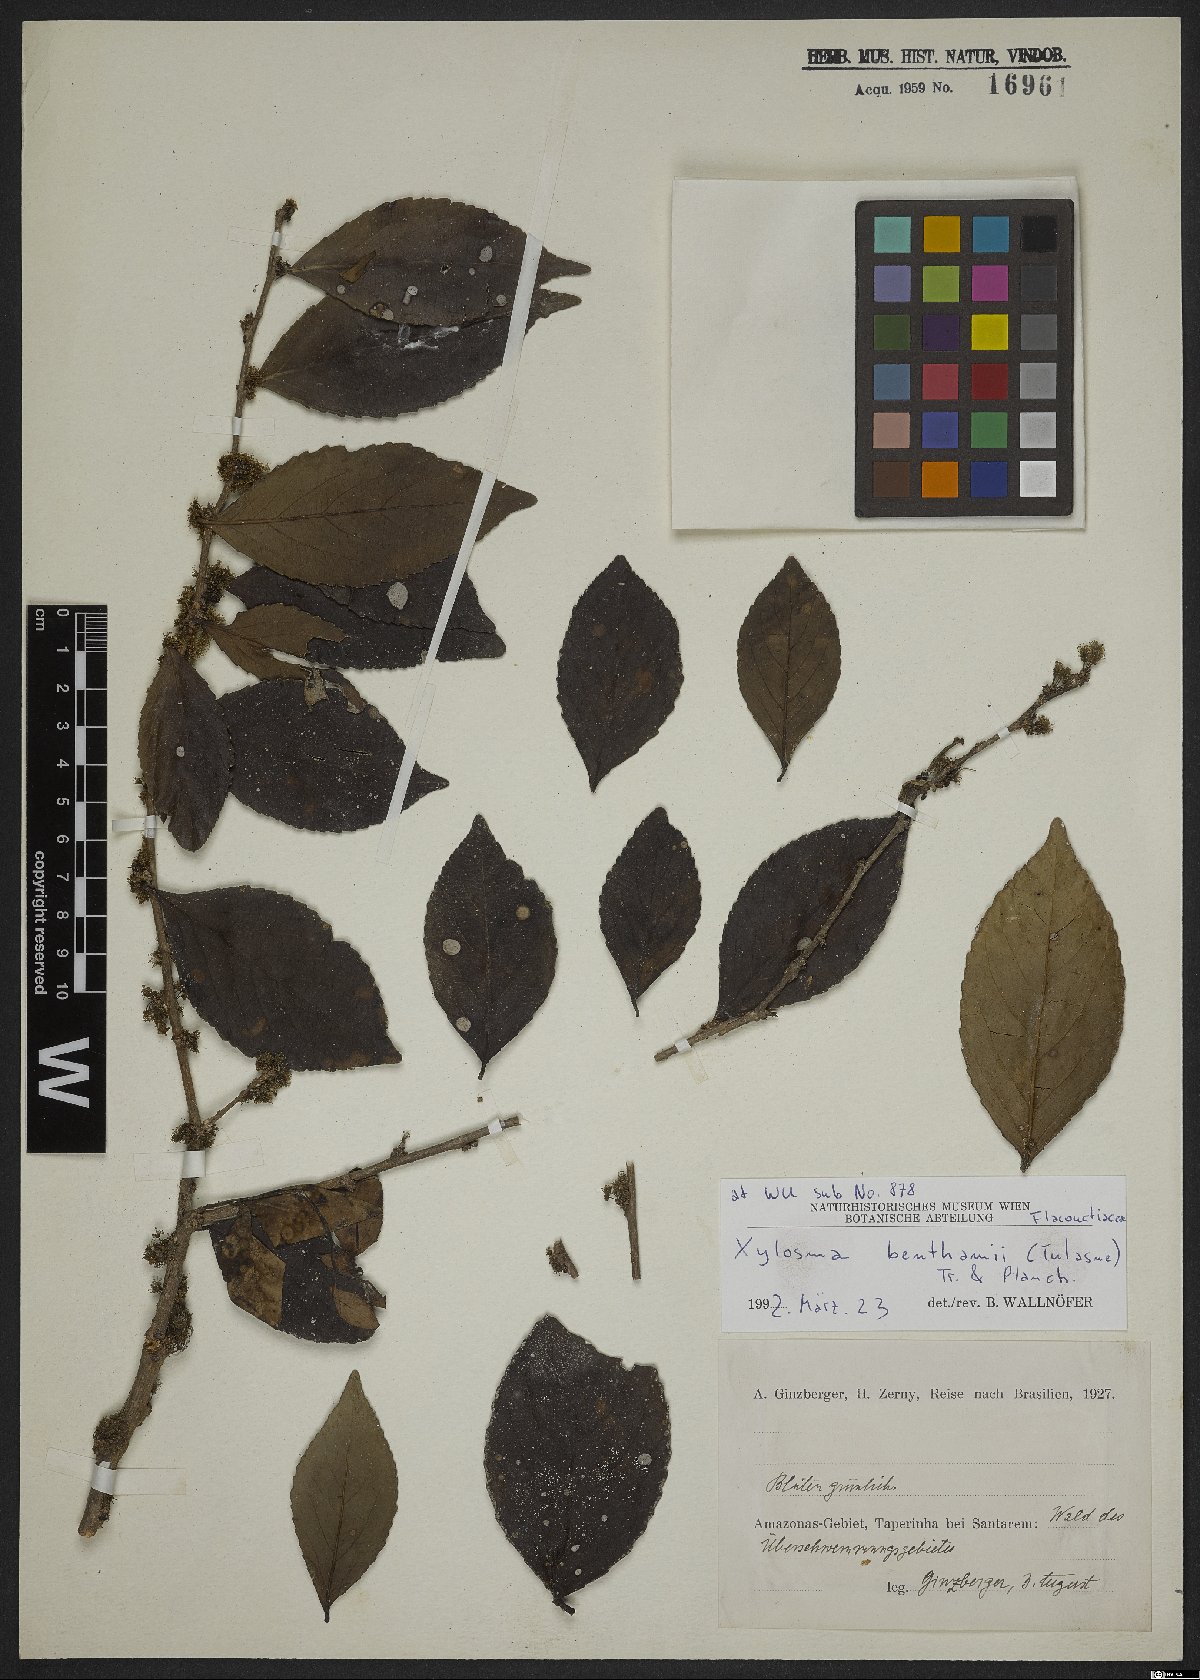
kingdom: Plantae
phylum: Tracheophyta
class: Magnoliopsida
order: Malpighiales
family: Salicaceae
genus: Xylosma
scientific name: Xylosma benthamii
